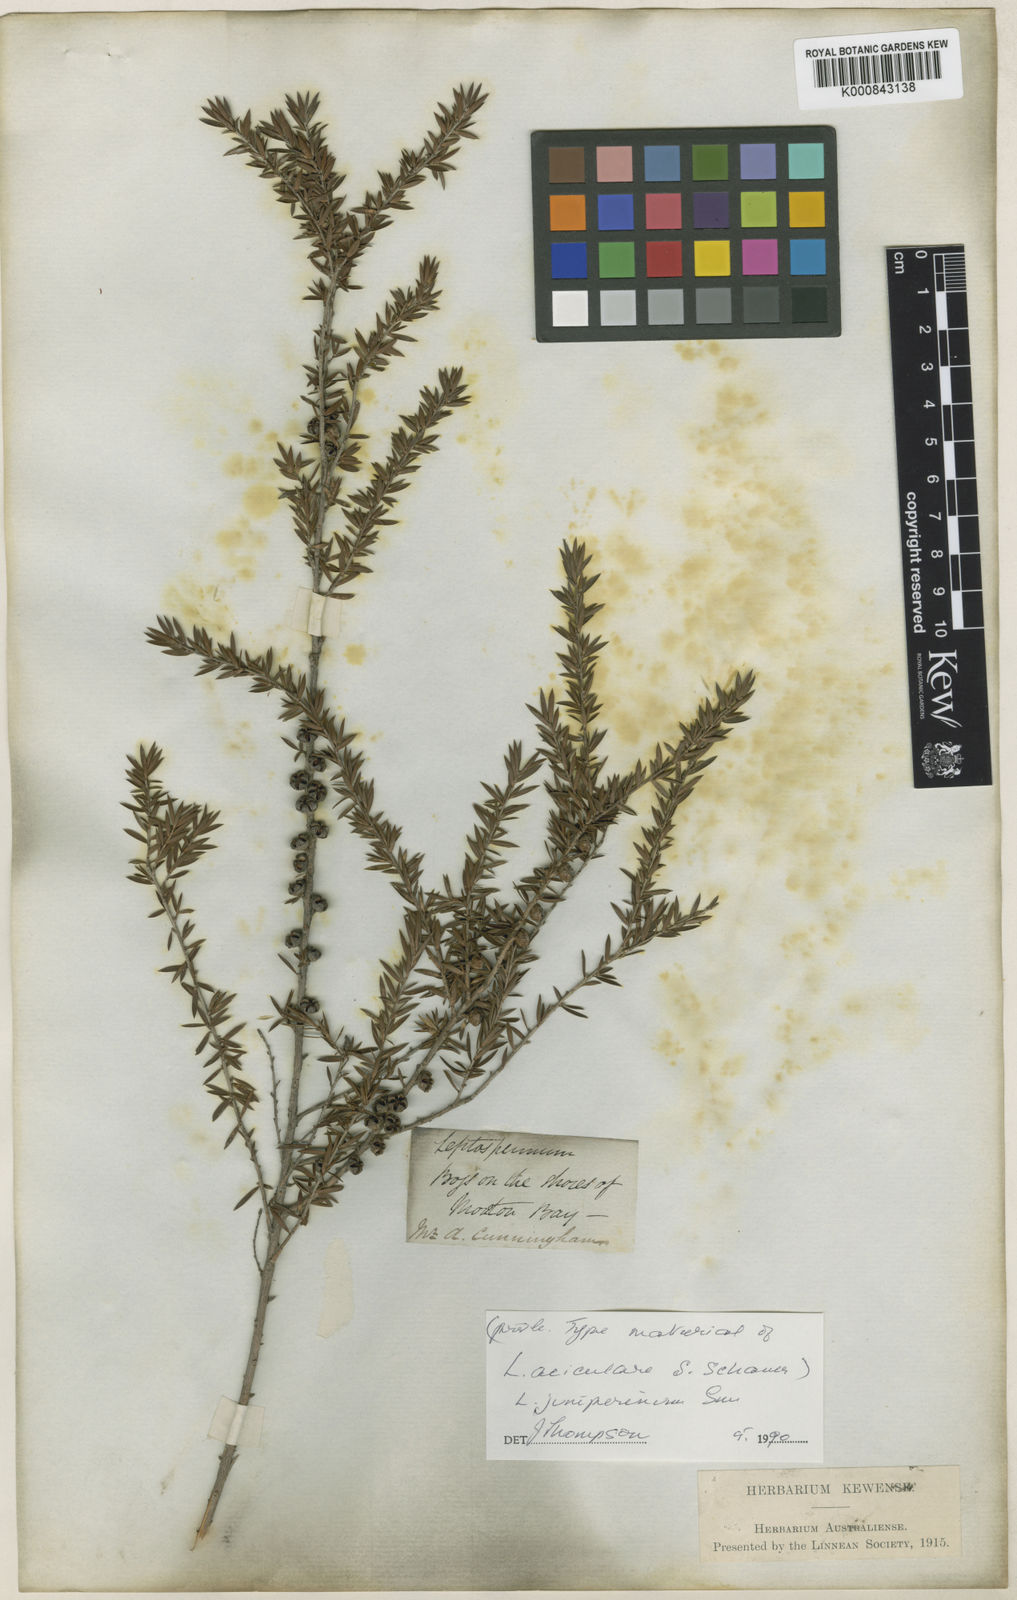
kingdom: Plantae
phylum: Tracheophyta
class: Magnoliopsida
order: Myrtales
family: Myrtaceae
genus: Leptospermum
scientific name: Leptospermum juniperinum
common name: Prickly teatree
